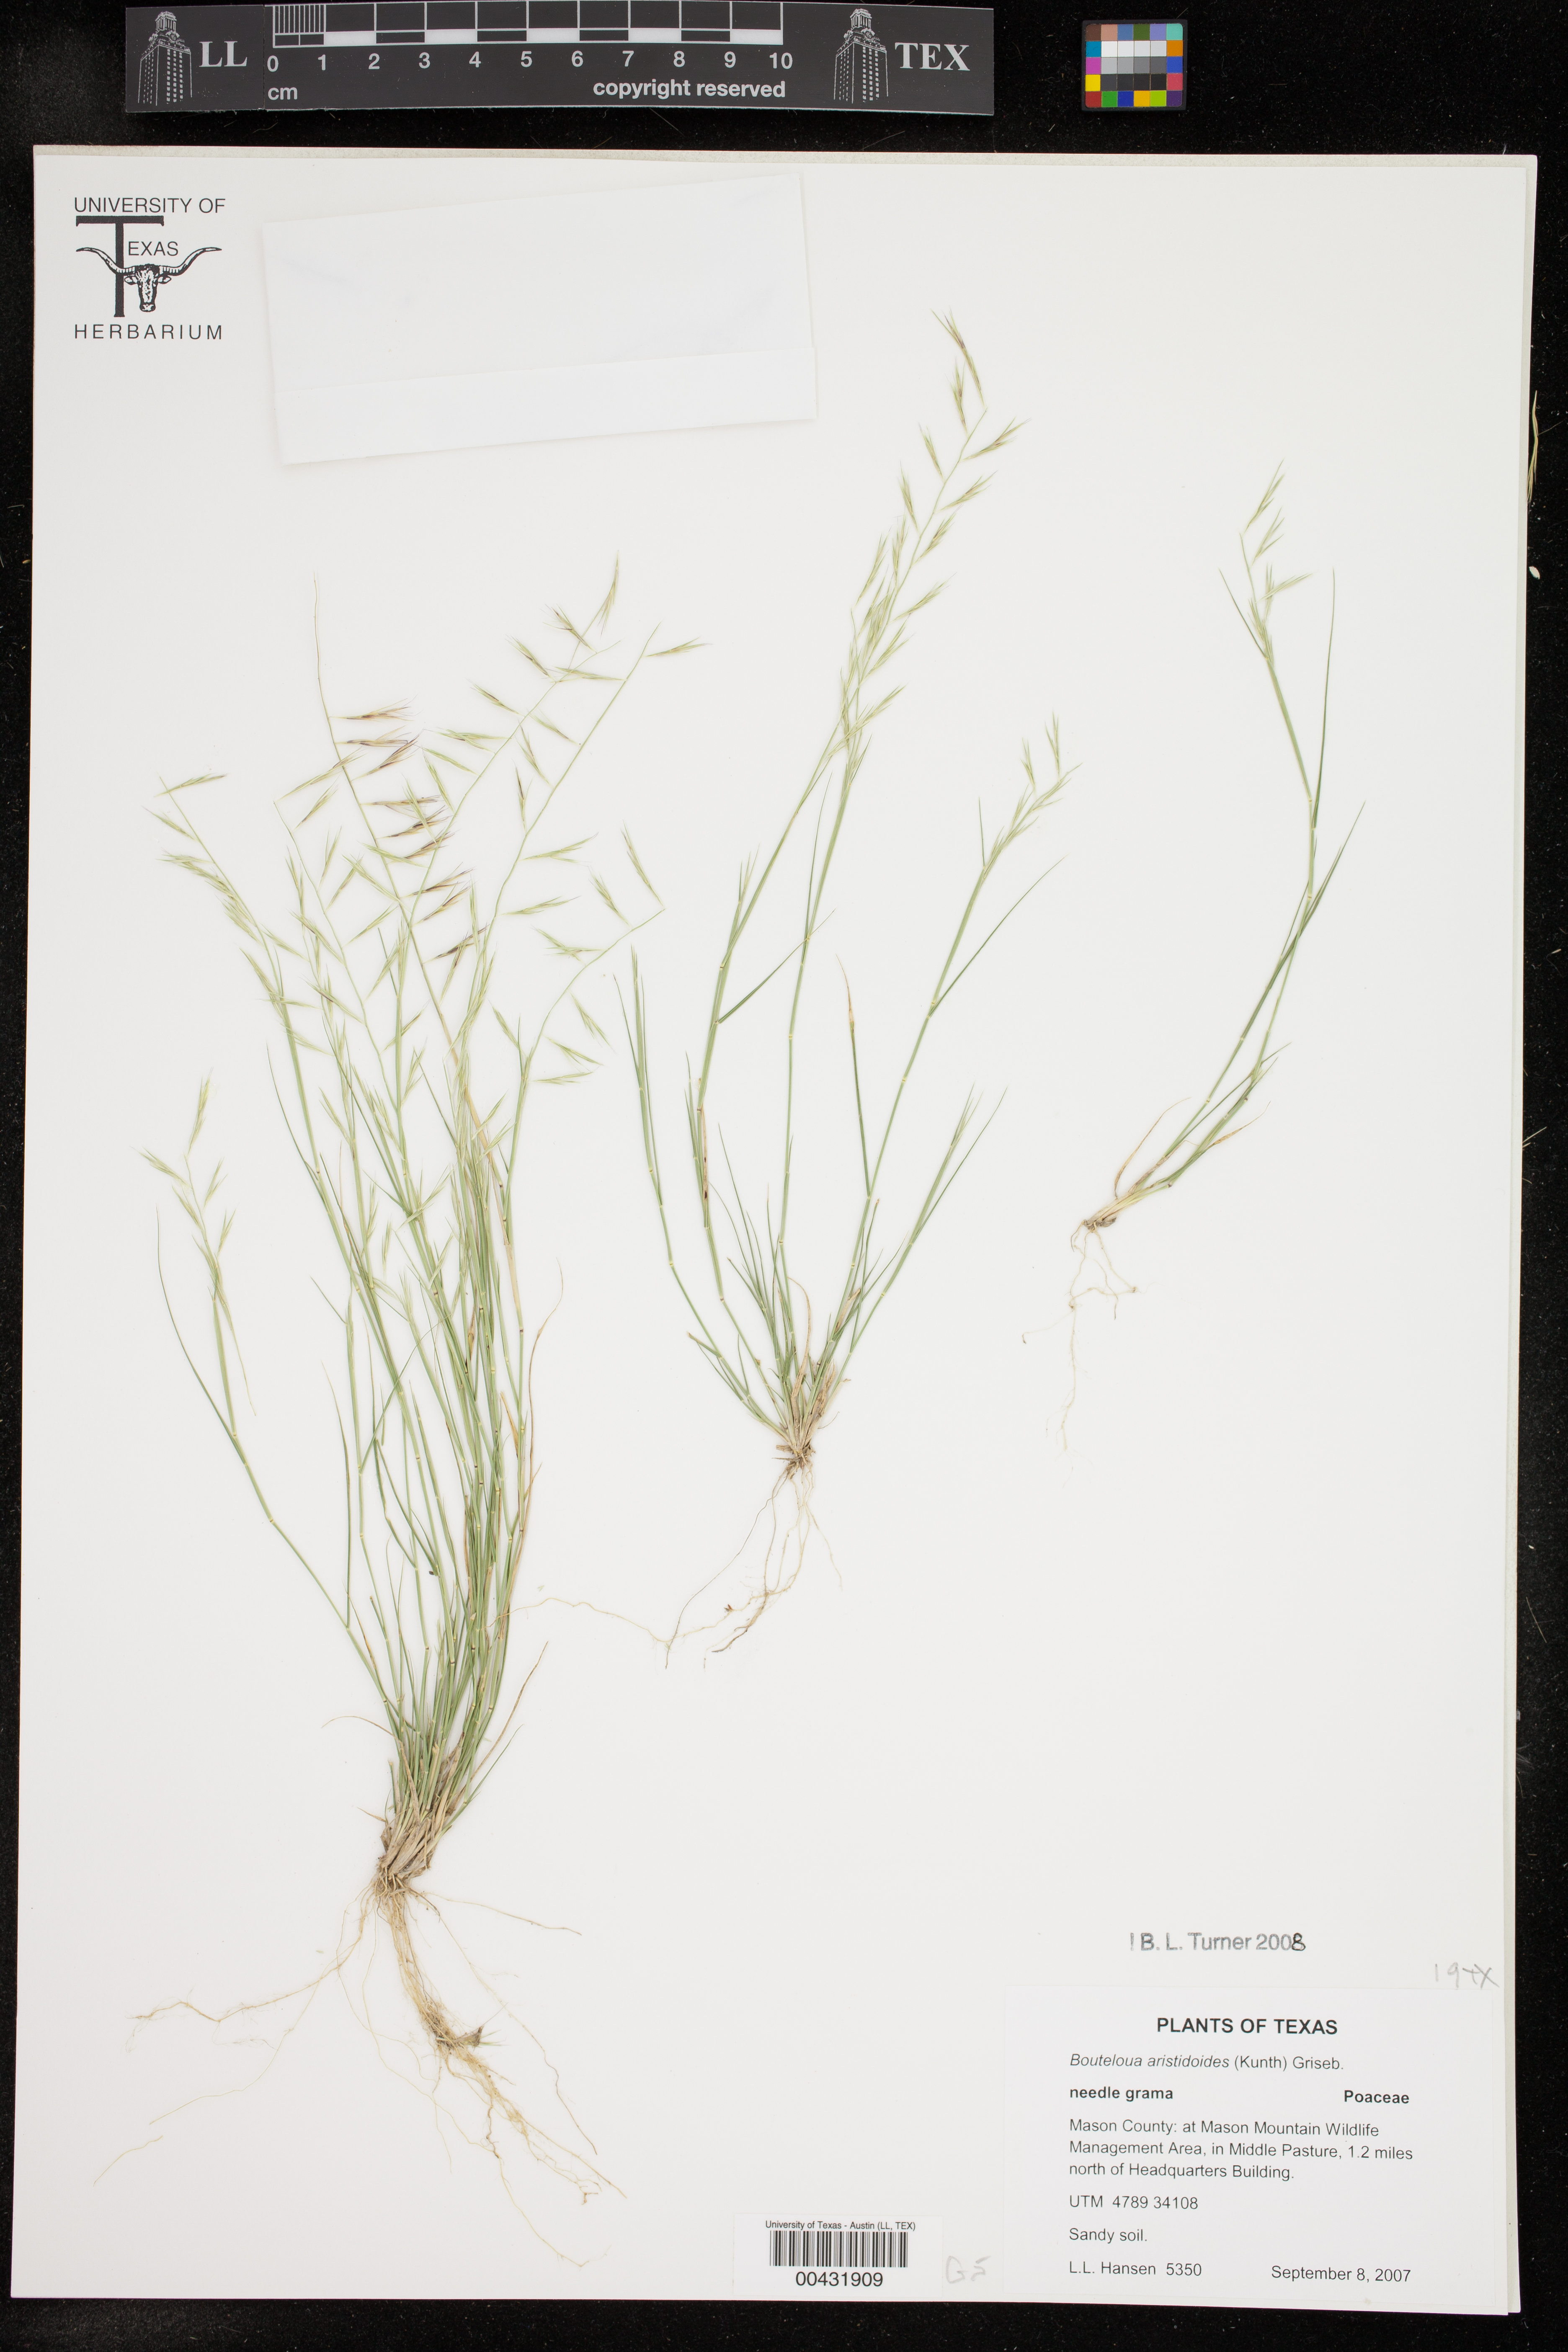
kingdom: Plantae
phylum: Tracheophyta
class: Liliopsida
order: Poales
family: Poaceae
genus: Bouteloua
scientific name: Bouteloua aristidoides
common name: Needle grama
